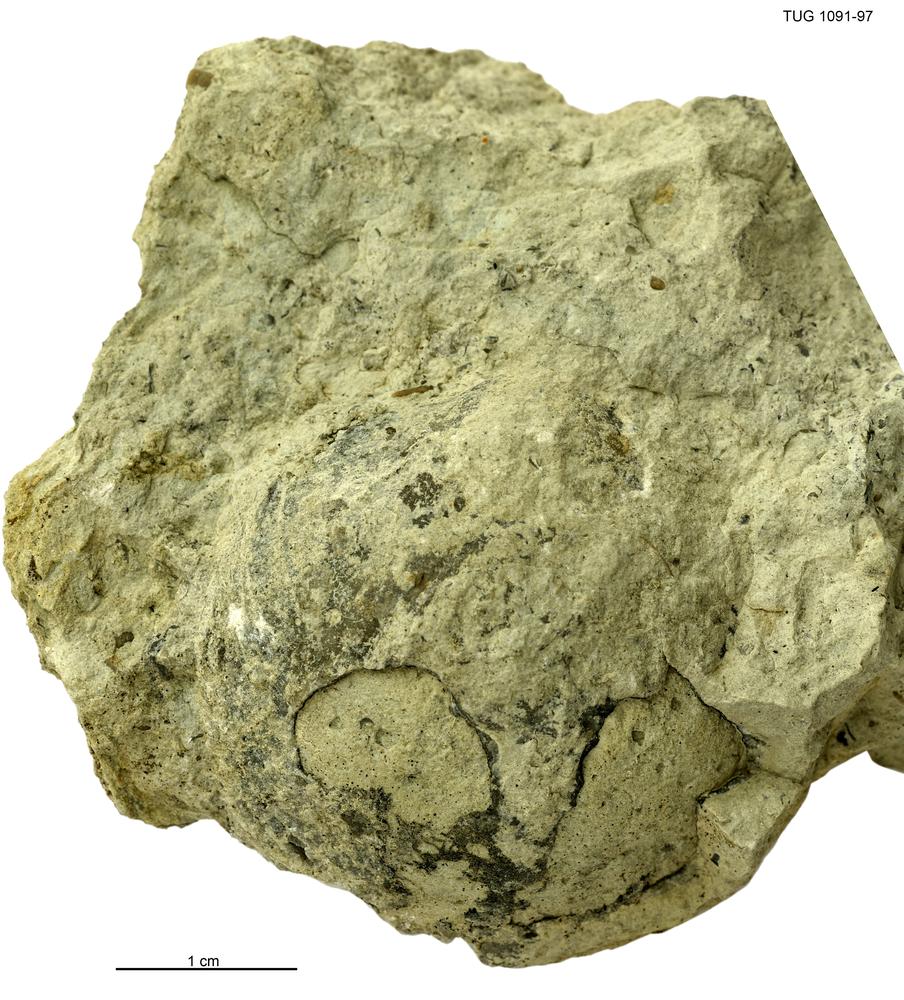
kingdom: Animalia
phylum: Brachiopoda
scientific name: Brachiopoda
